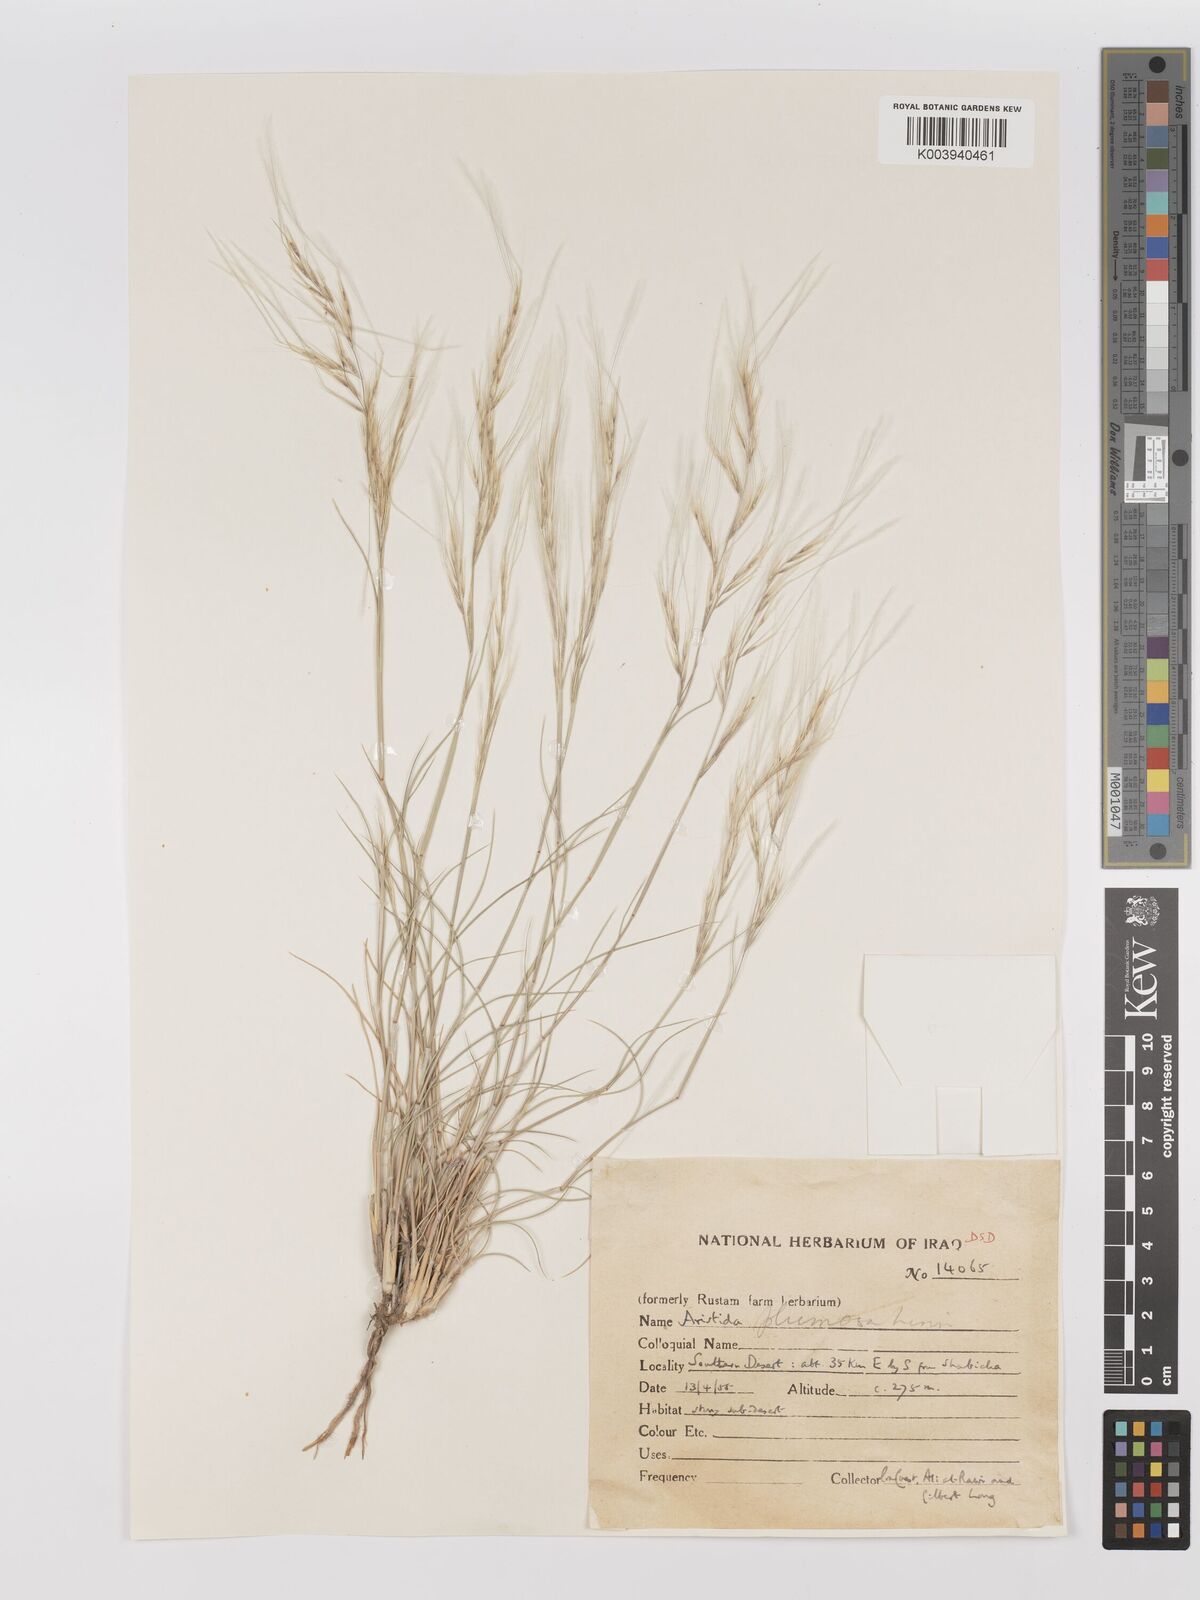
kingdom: Plantae
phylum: Tracheophyta
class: Liliopsida
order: Poales
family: Poaceae
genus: Stipagrostis
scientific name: Stipagrostis plumosa
